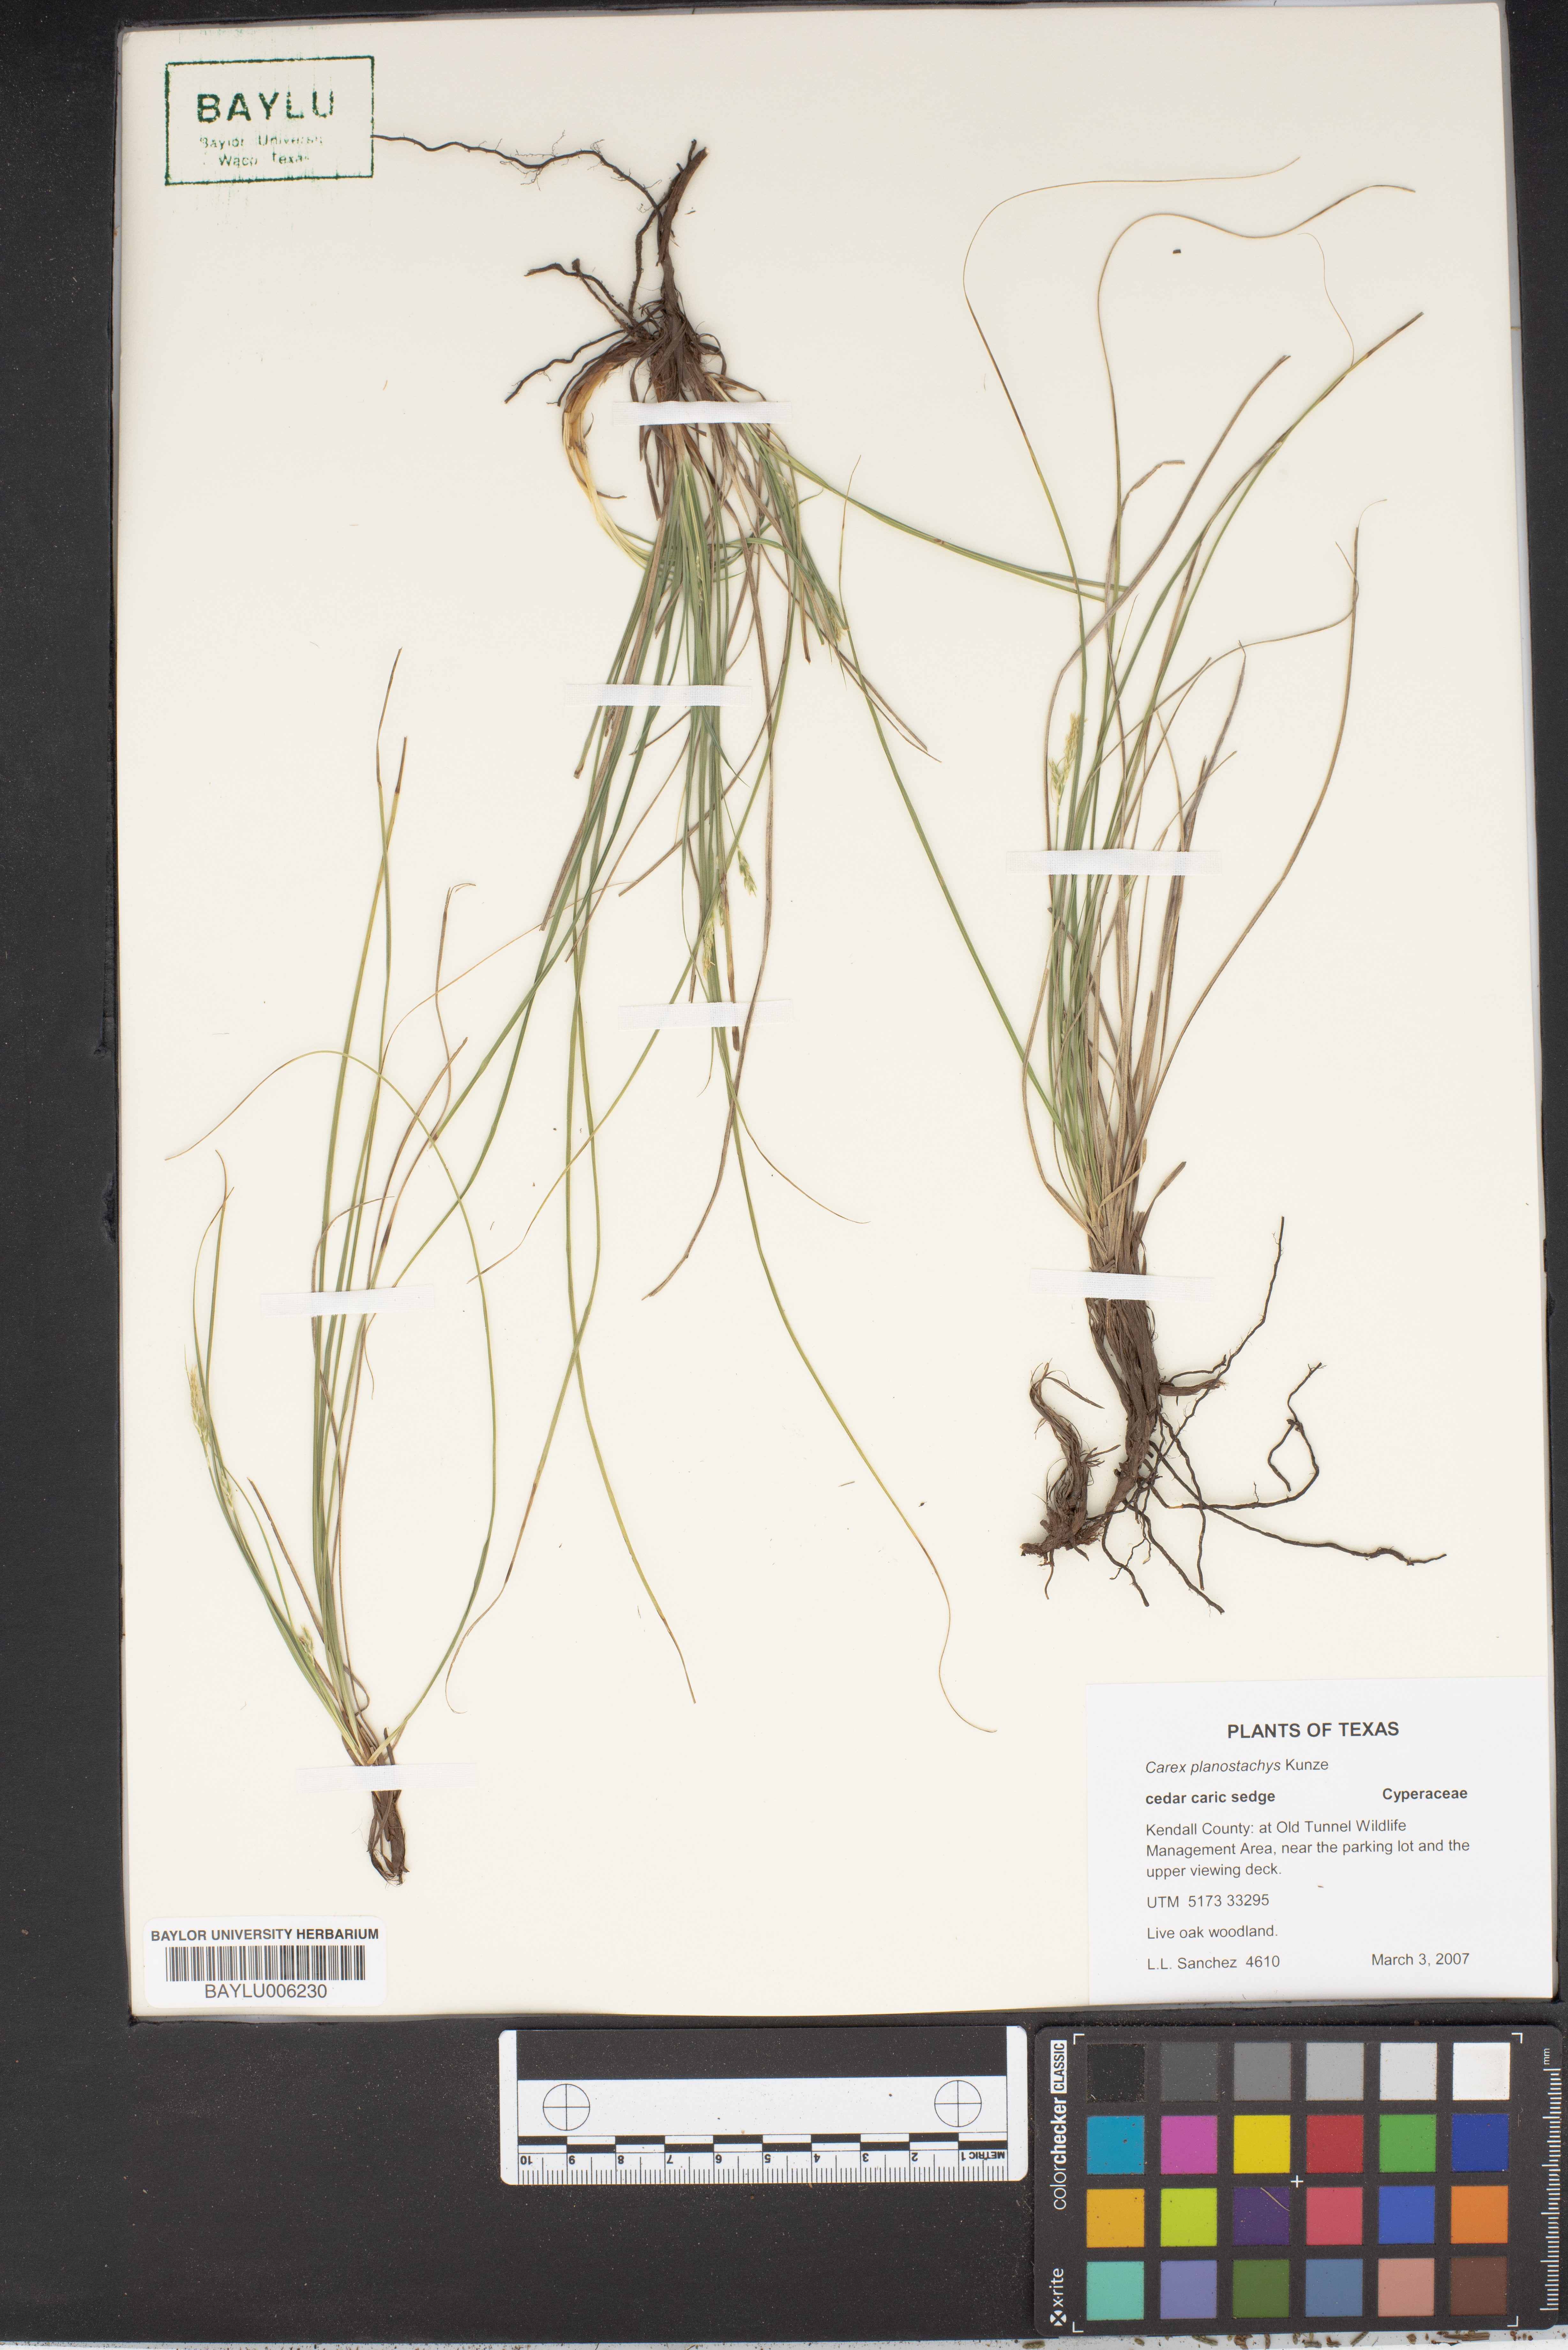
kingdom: Plantae
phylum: Tracheophyta
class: Liliopsida
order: Poales
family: Cyperaceae
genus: Carex
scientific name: Carex planostachys
